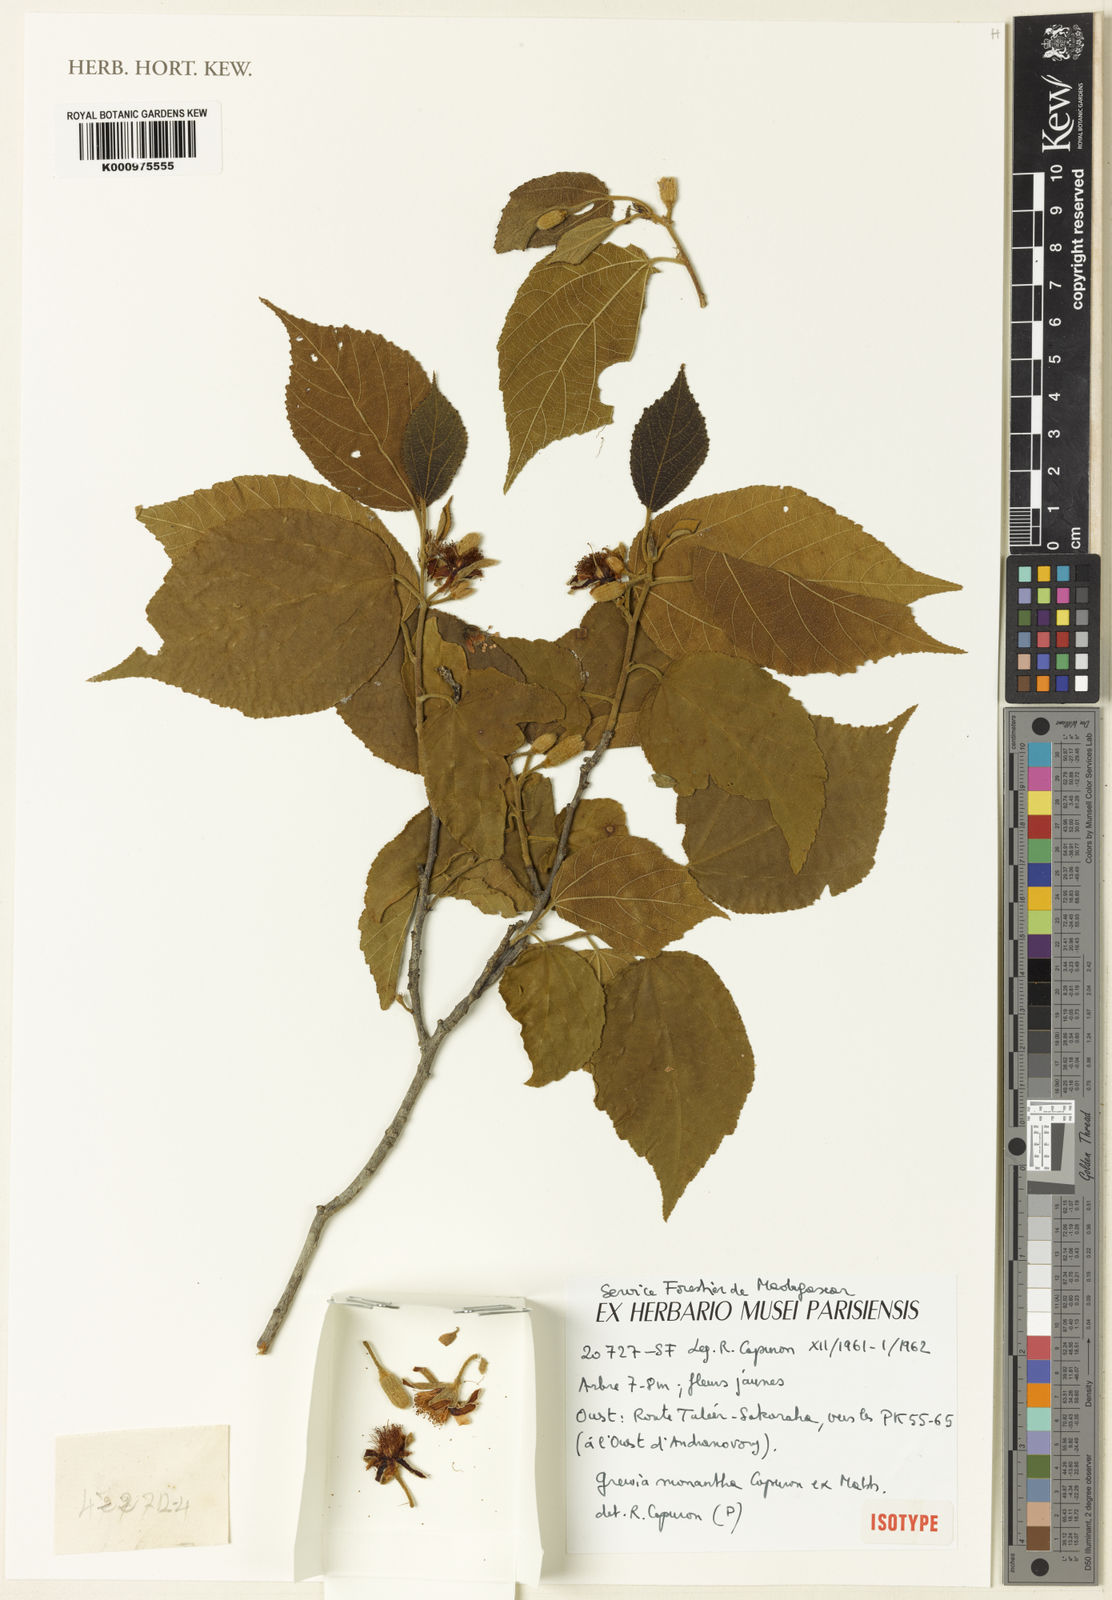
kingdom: Plantae
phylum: Tracheophyta
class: Magnoliopsida
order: Malvales
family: Malvaceae
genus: Grewia
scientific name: Grewia monantha
